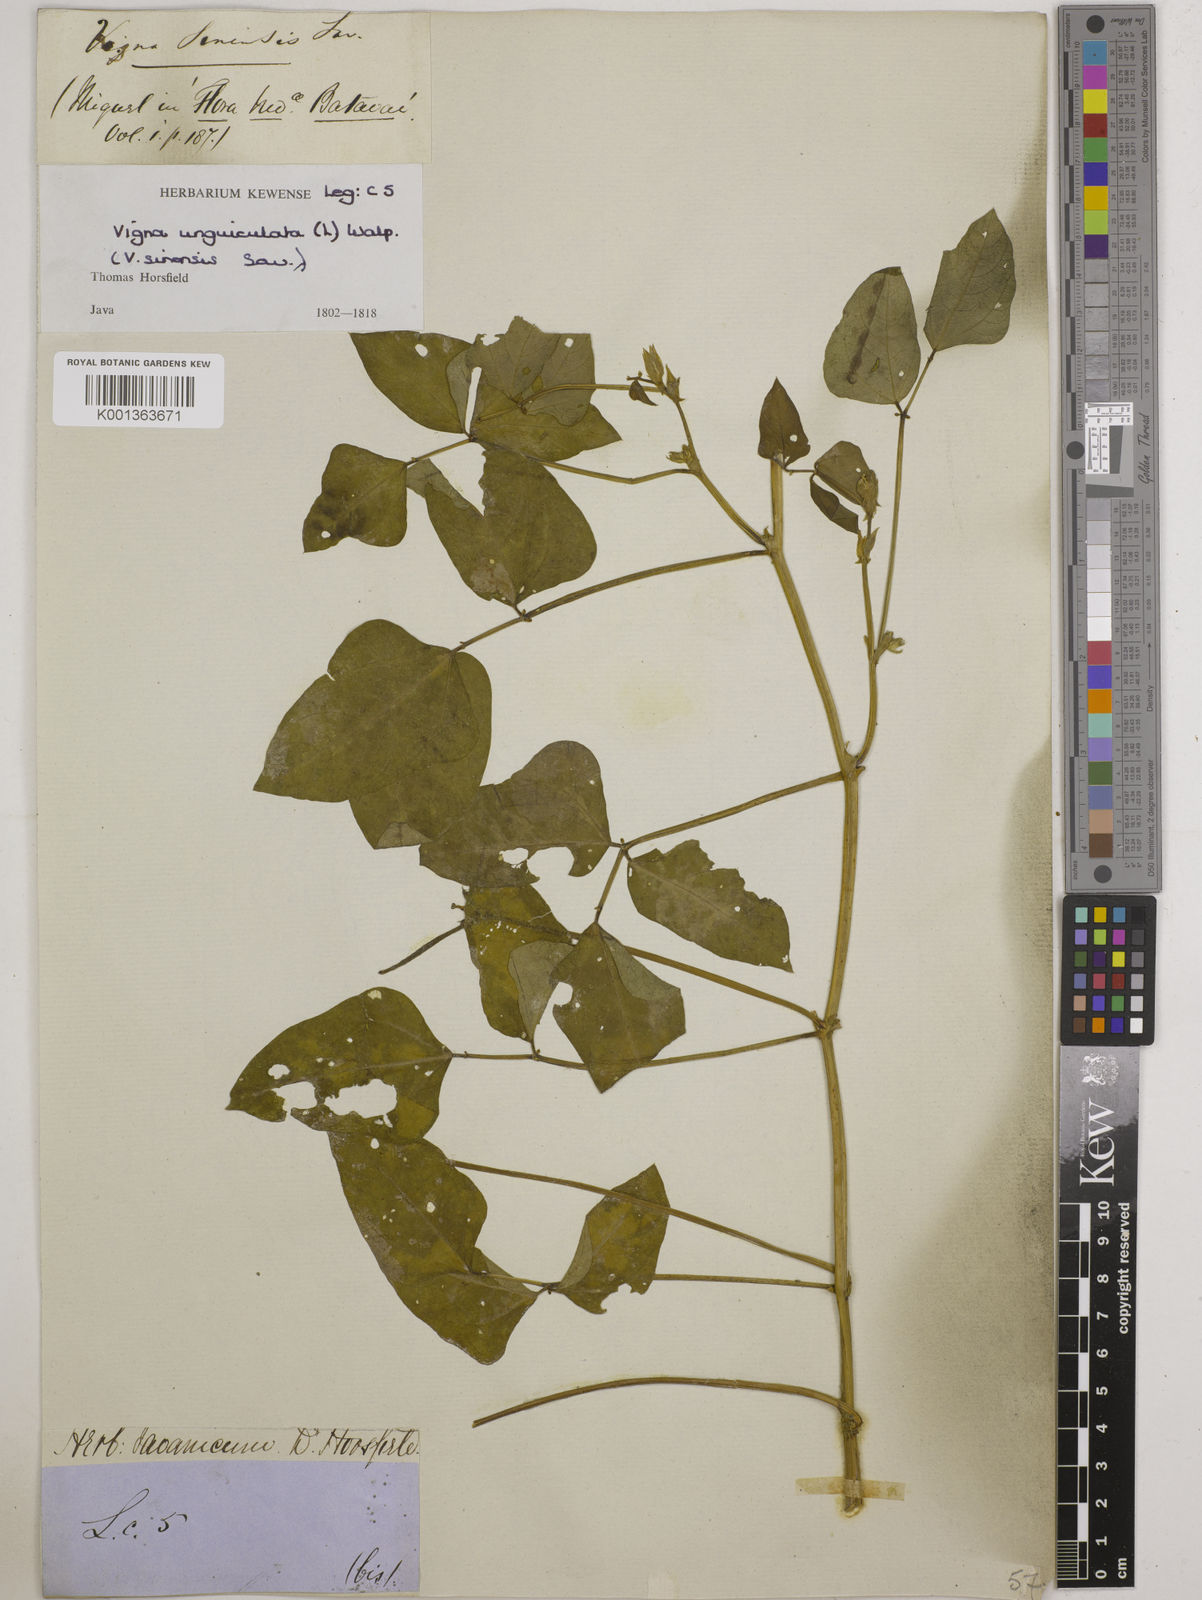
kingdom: Plantae
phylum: Tracheophyta
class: Magnoliopsida
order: Fabales
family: Fabaceae
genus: Vigna
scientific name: Vigna unguiculata
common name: Cowpea
